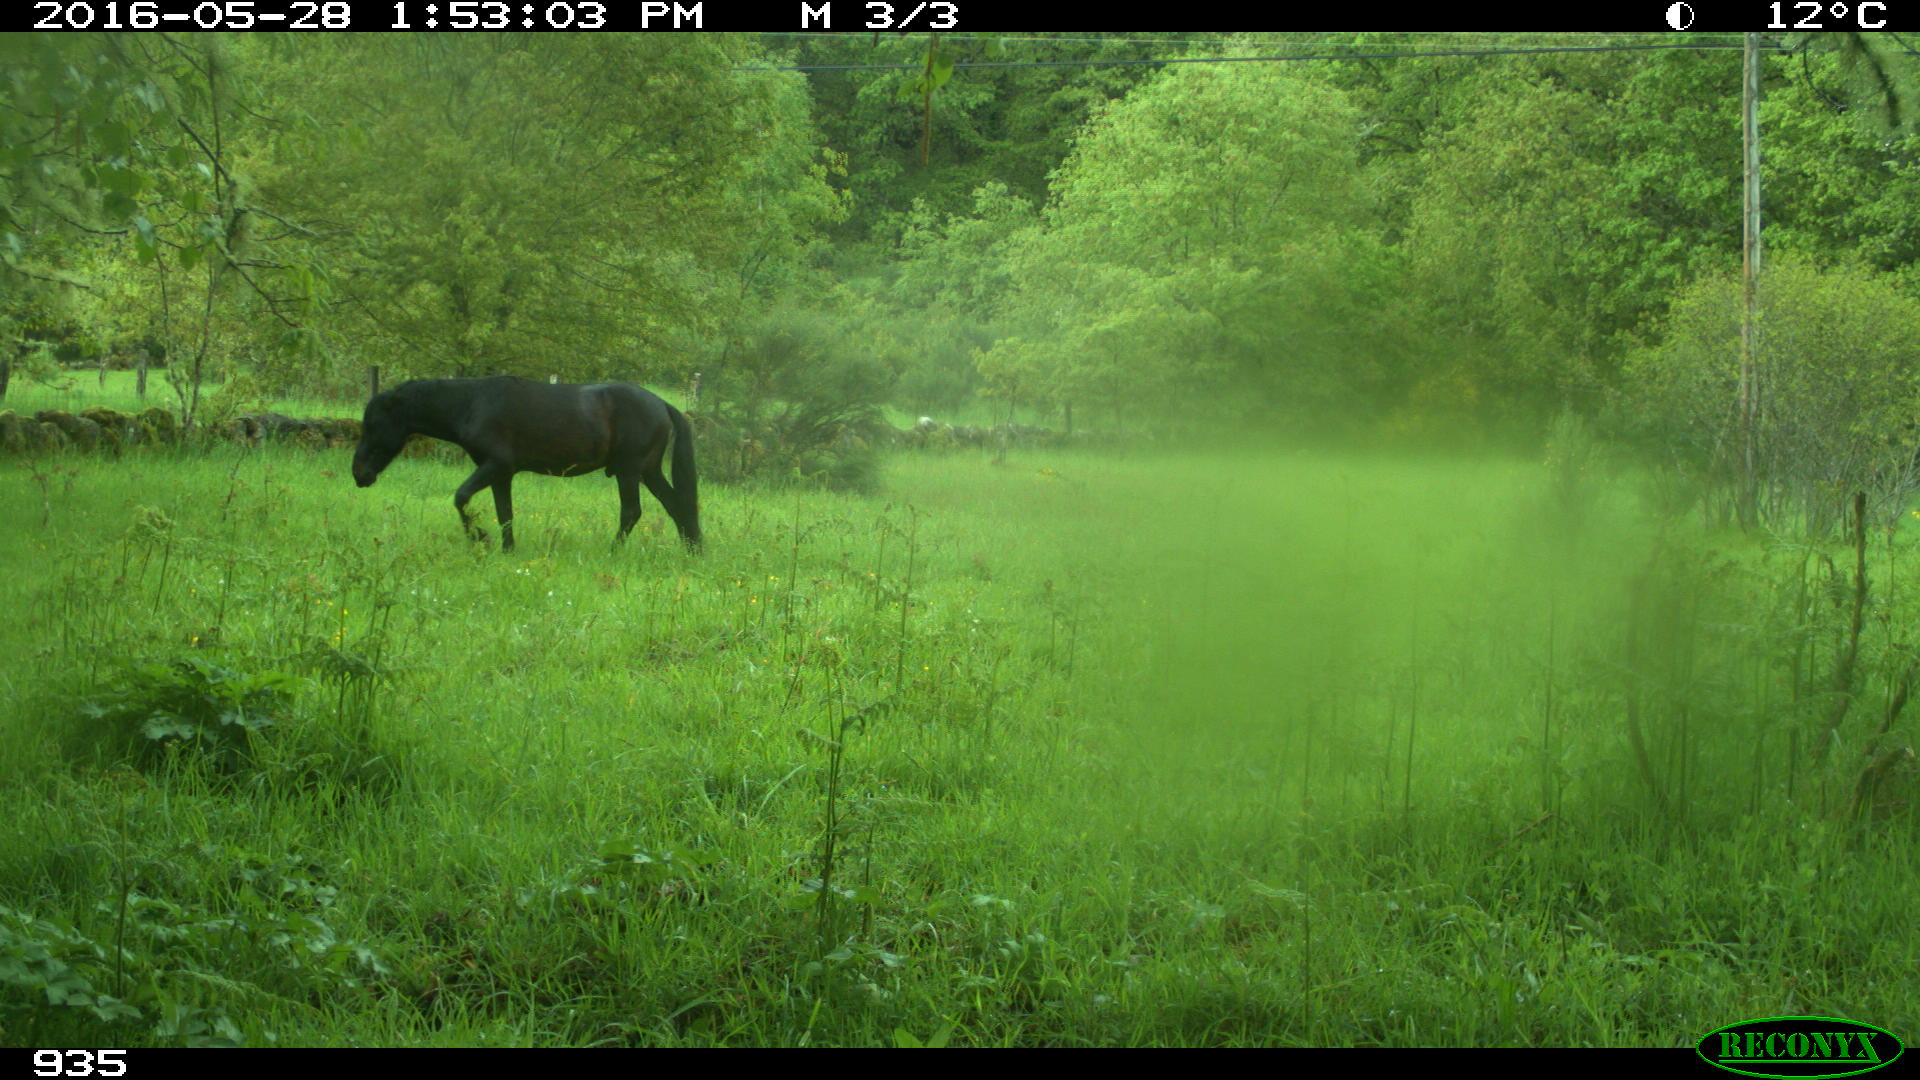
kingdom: Animalia
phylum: Chordata
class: Mammalia
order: Perissodactyla
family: Equidae
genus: Equus
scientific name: Equus caballus
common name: Horse
